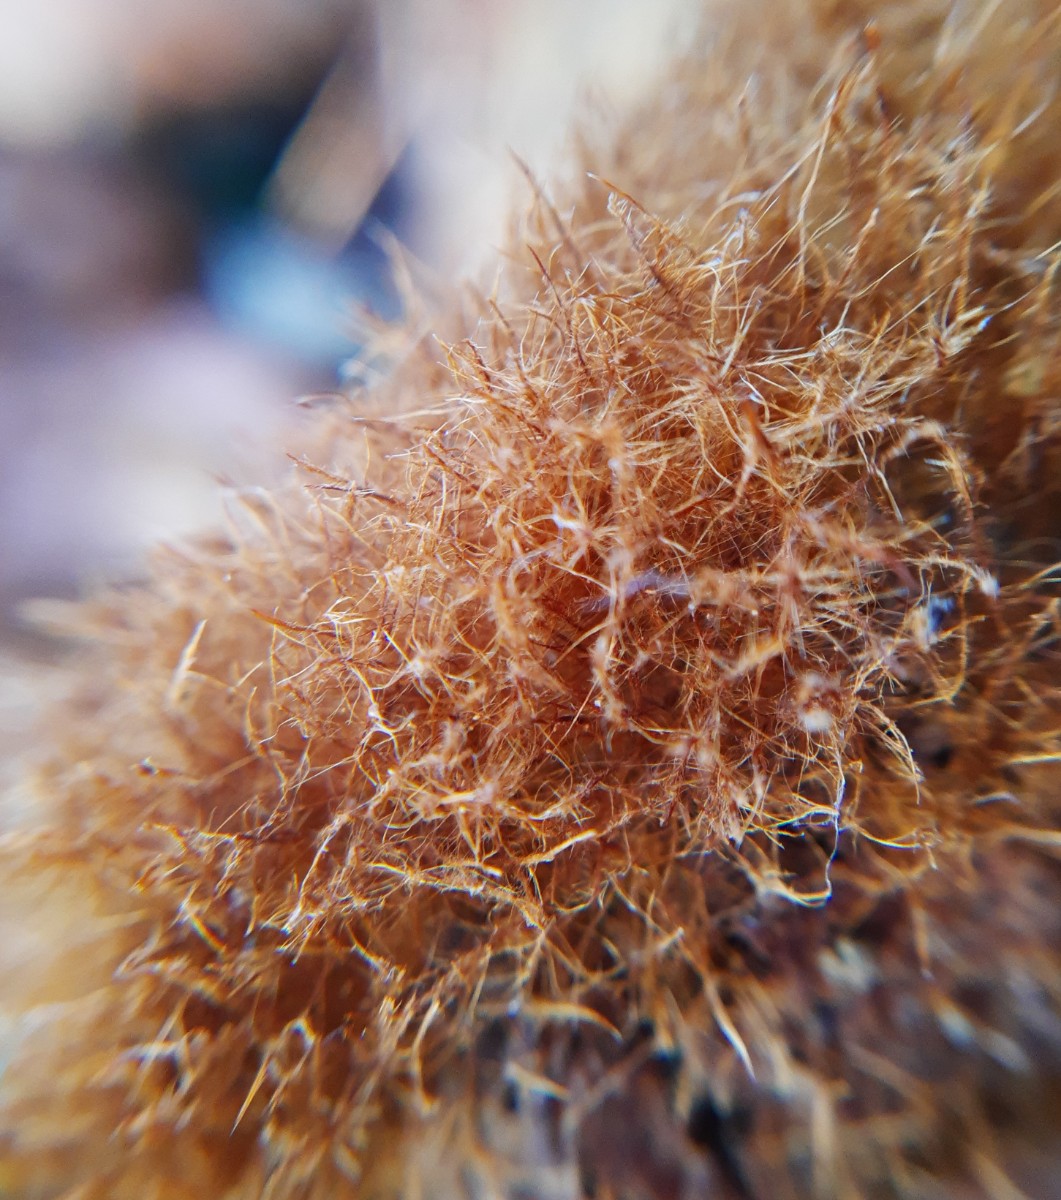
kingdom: Fungi
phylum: Basidiomycota
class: Agaricomycetes
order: Agaricales
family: Psathyrellaceae
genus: Ozonium
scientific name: Ozonium
